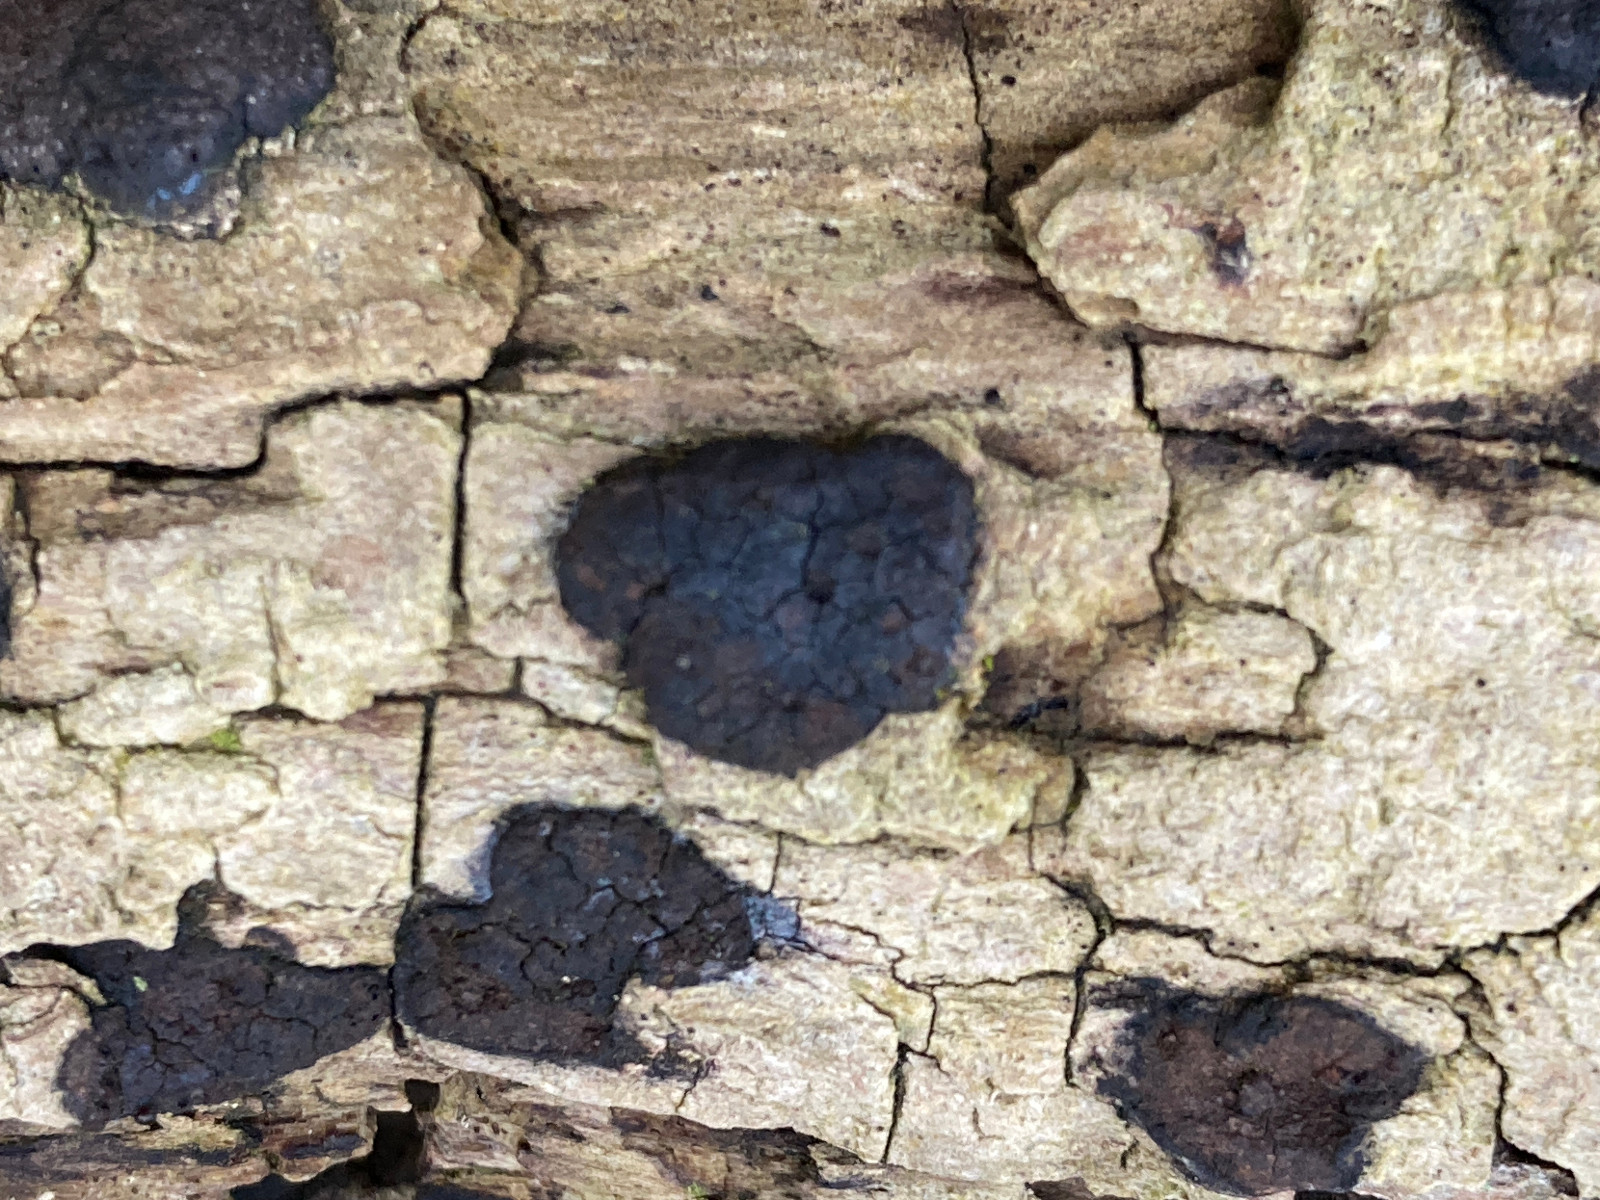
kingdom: Fungi
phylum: Ascomycota
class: Sordariomycetes
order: Xylariales
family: Hypoxylaceae
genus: Hypoxylon
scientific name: Hypoxylon petriniae
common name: nedsænket kulbær
